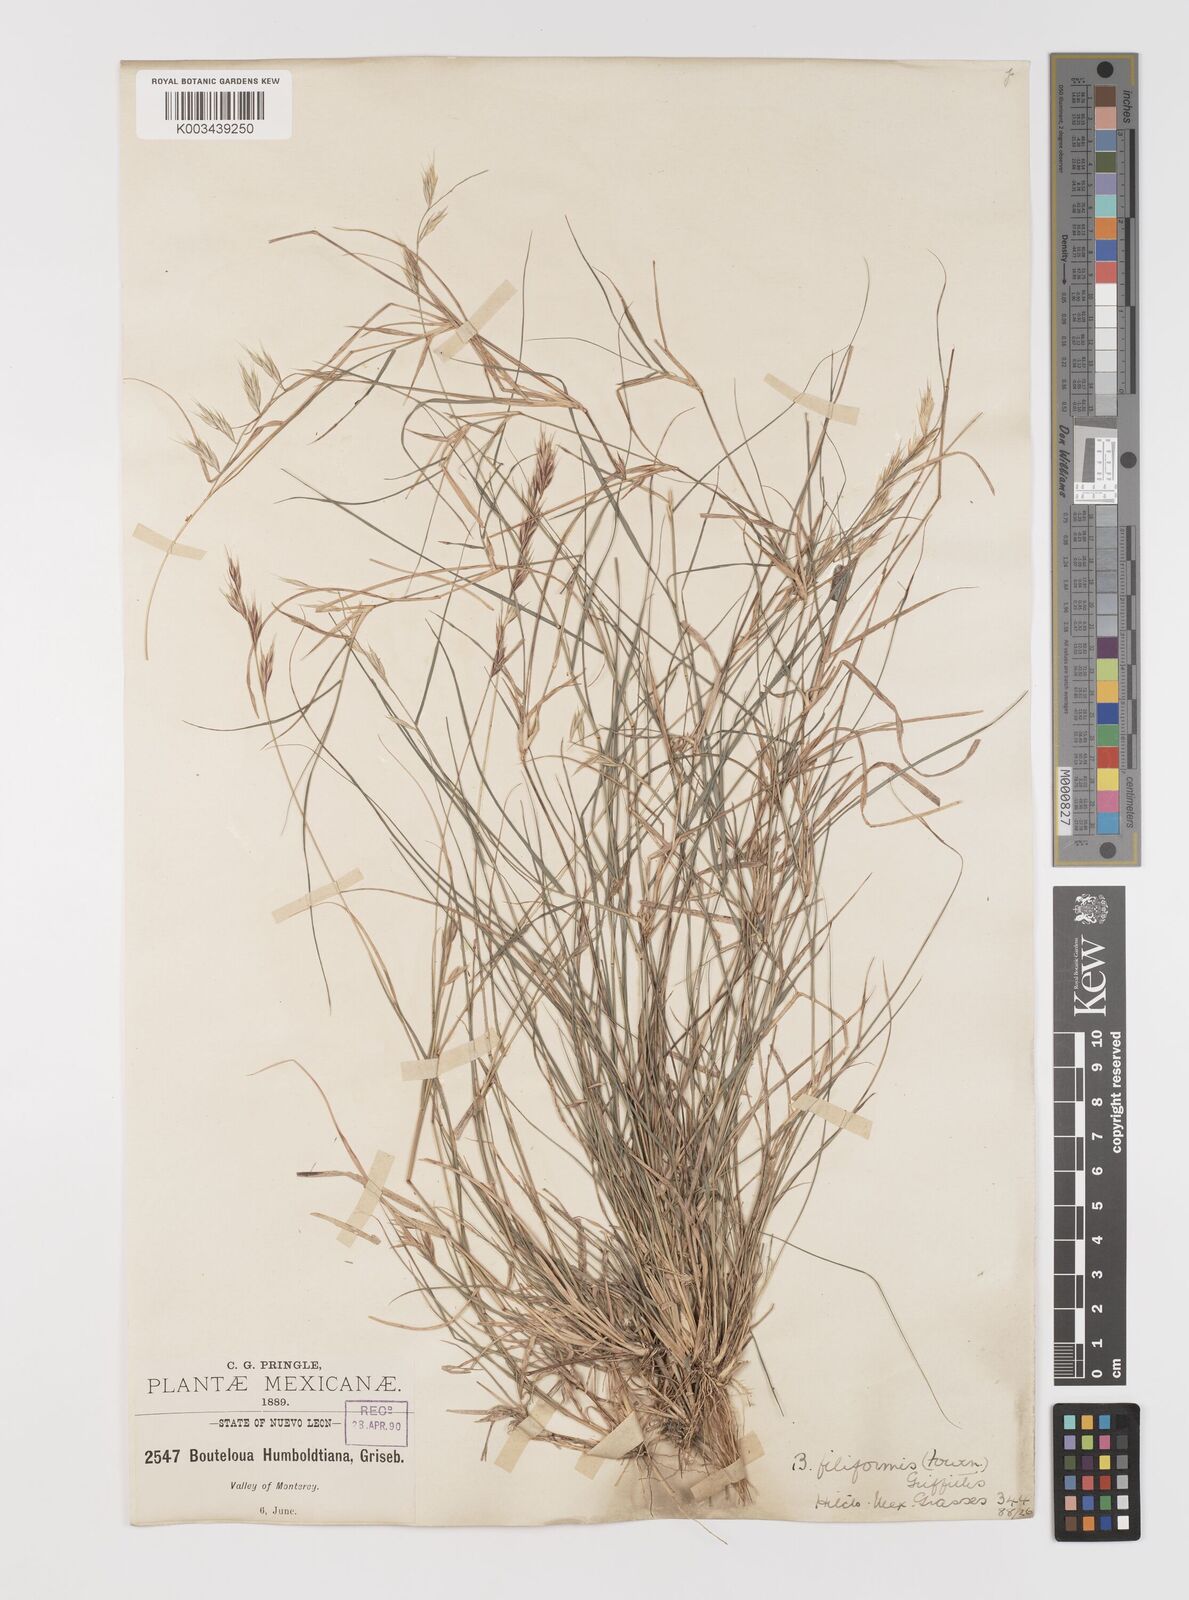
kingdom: Plantae
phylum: Tracheophyta
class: Liliopsida
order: Poales
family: Poaceae
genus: Bouteloua
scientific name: Bouteloua repens
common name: Slender grama
